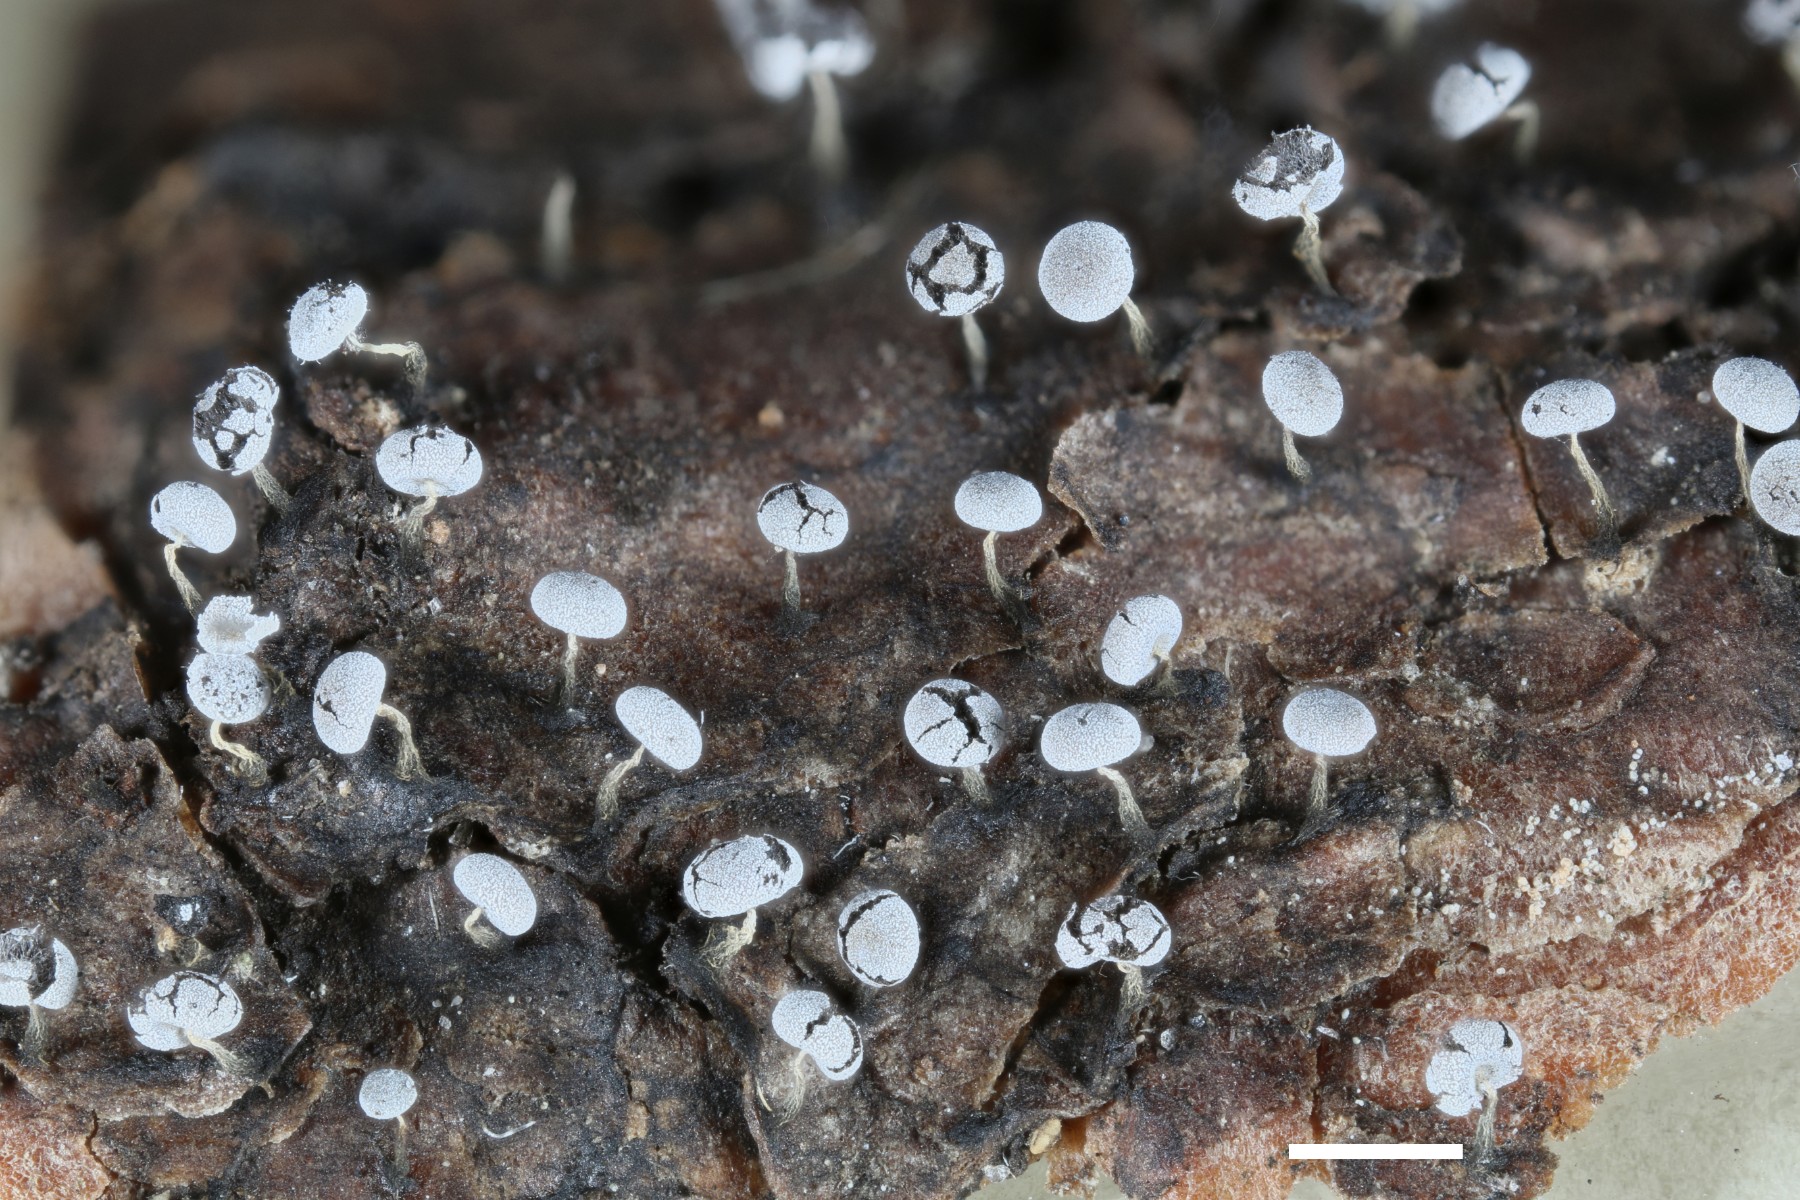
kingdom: Protozoa
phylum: Mycetozoa
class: Myxomycetes
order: Physarales
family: Physaraceae
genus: Physarum
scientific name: Physarum album
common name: nikkende støvknop
